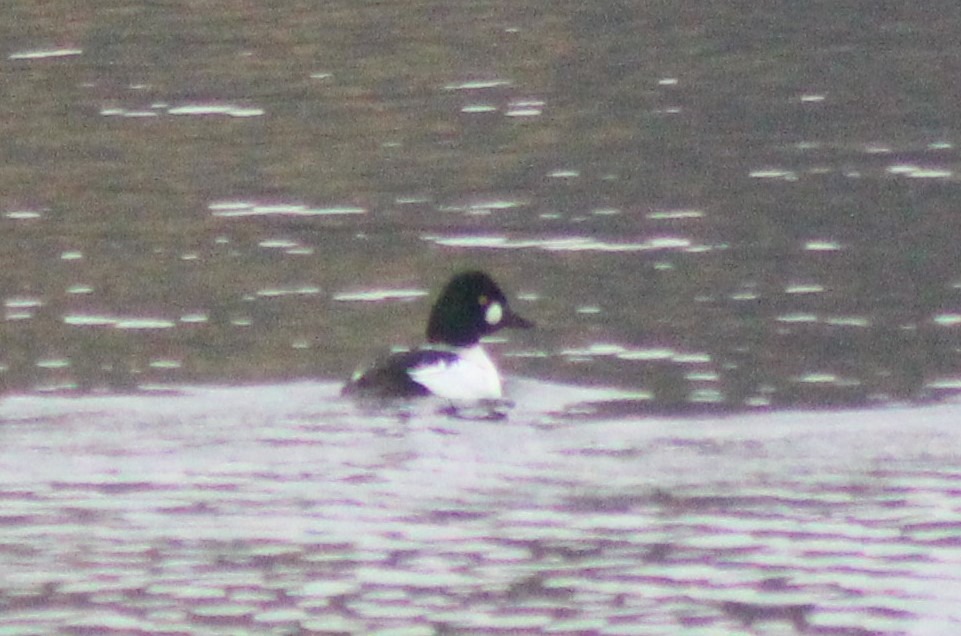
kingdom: Animalia
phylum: Chordata
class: Aves
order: Anseriformes
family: Anatidae
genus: Bucephala
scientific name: Bucephala clangula
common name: Hvinand
